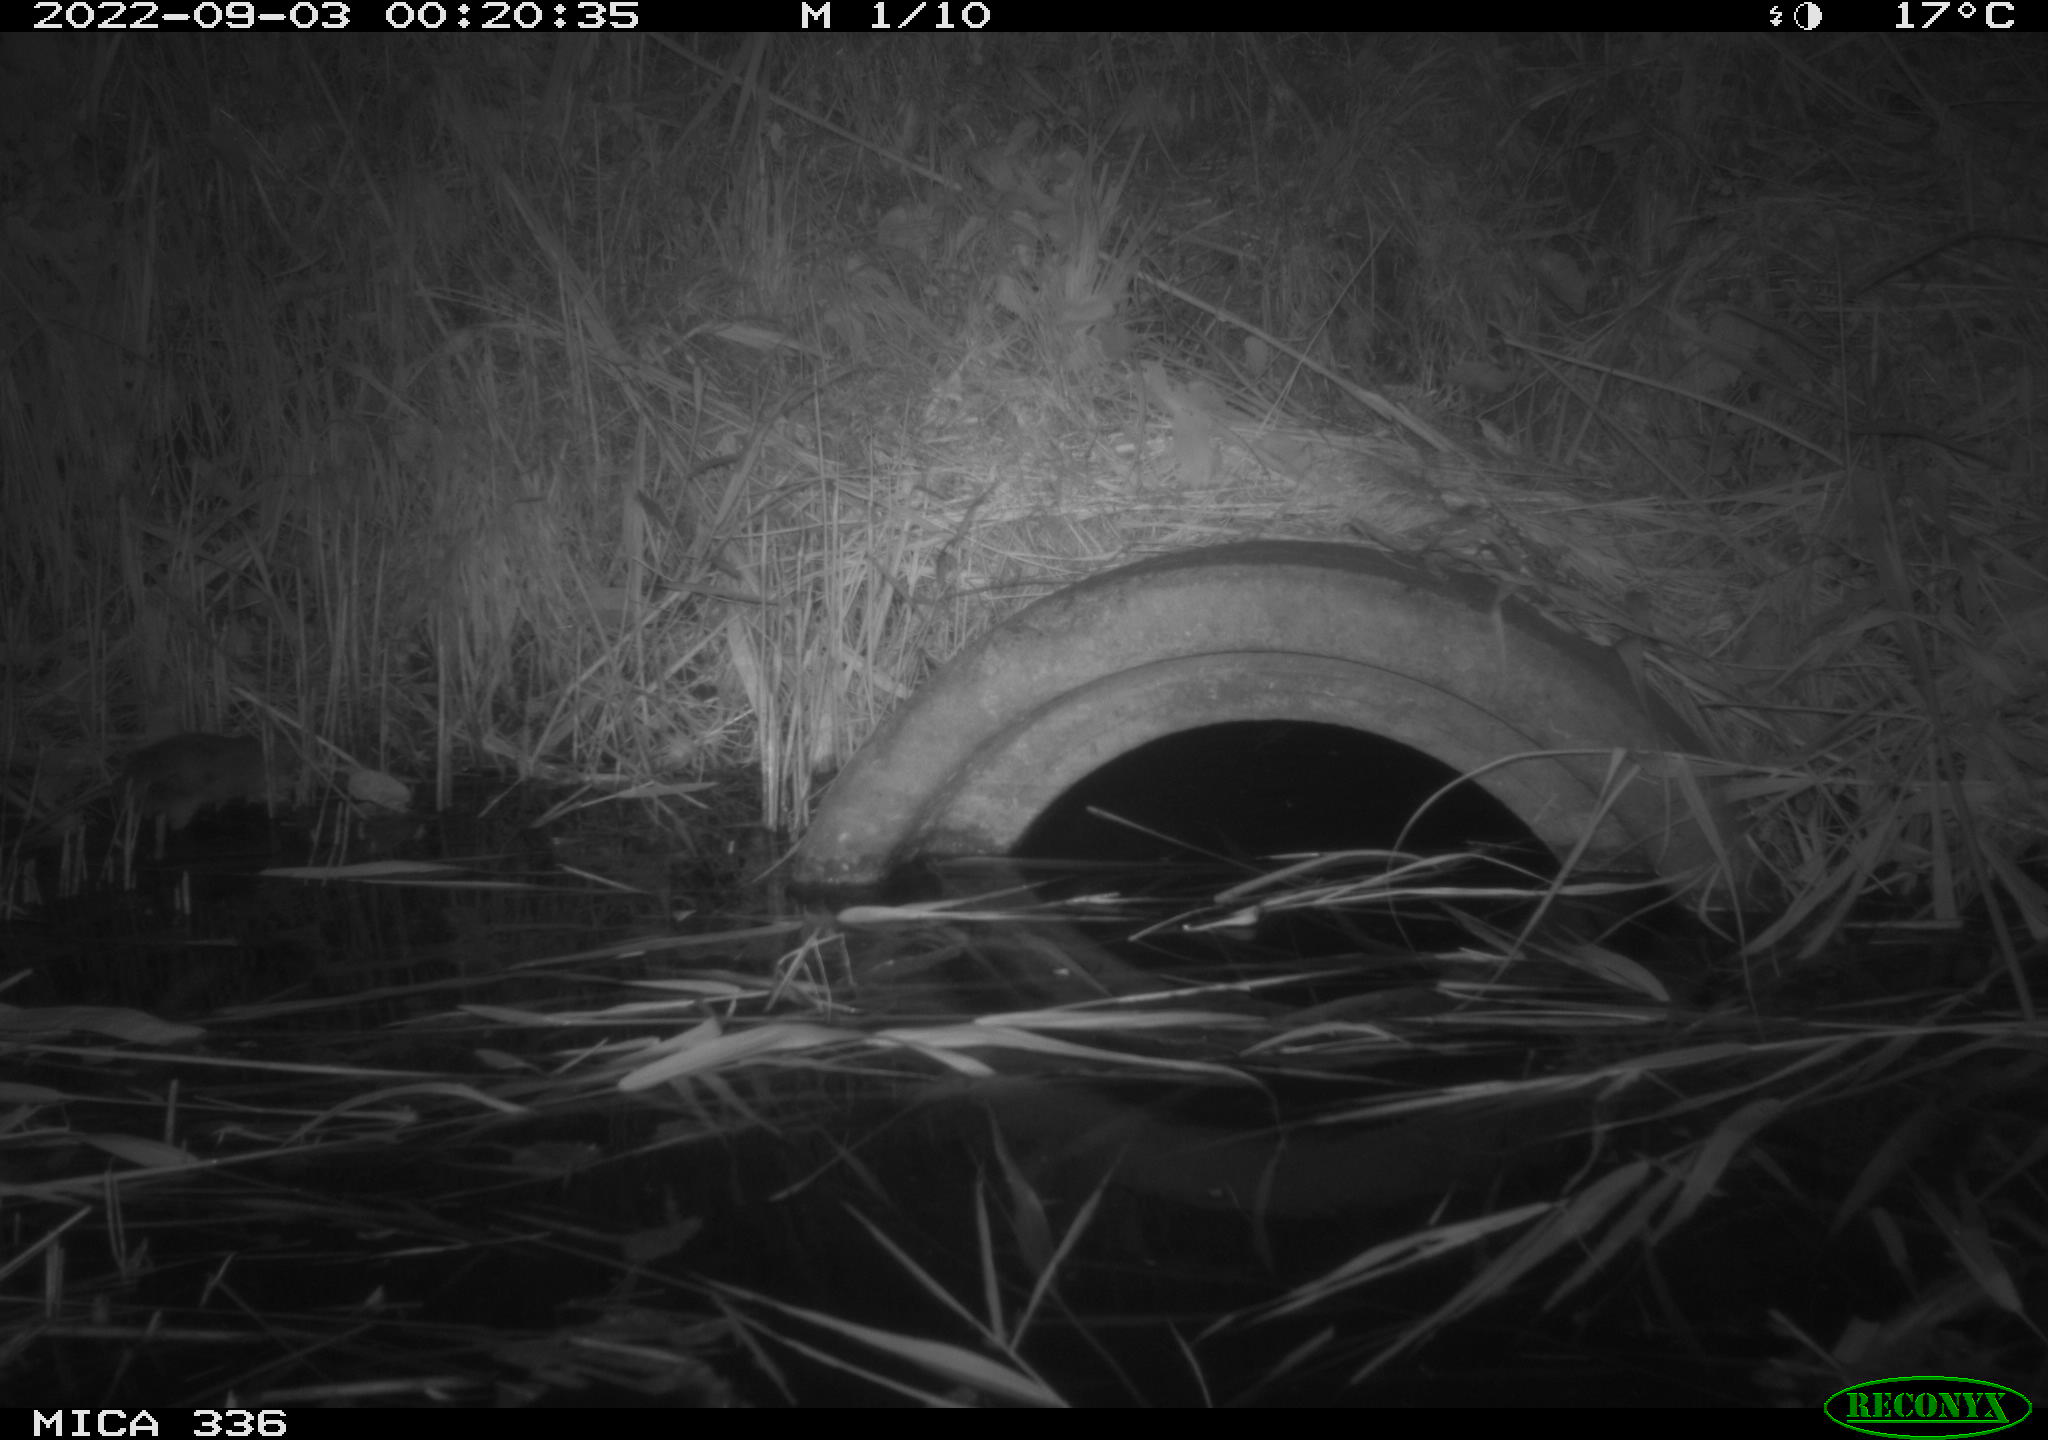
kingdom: Animalia
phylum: Chordata
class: Mammalia
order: Rodentia
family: Muridae
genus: Rattus
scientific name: Rattus norvegicus
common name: Brown rat
